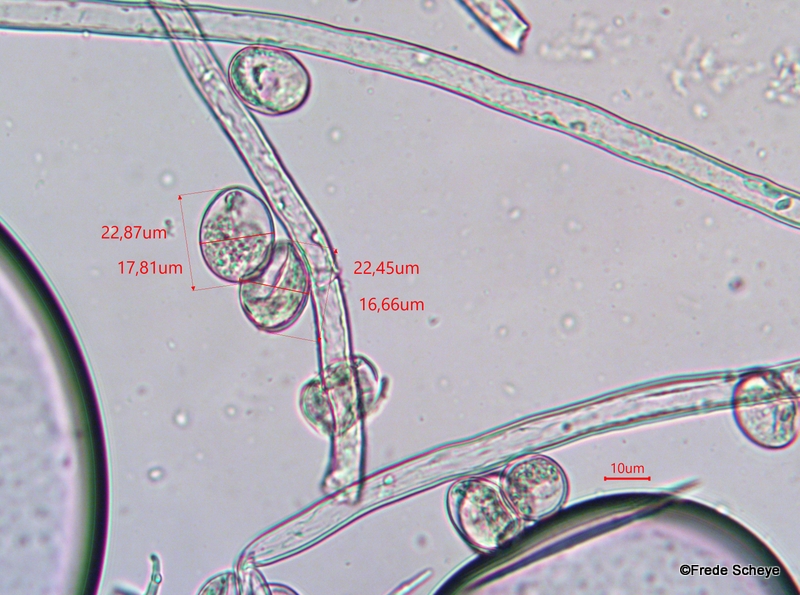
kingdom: Chromista
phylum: Oomycota
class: Peronosporea
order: Peronosporales
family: Peronosporaceae
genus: Peronospora
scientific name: Peronospora calotheca
